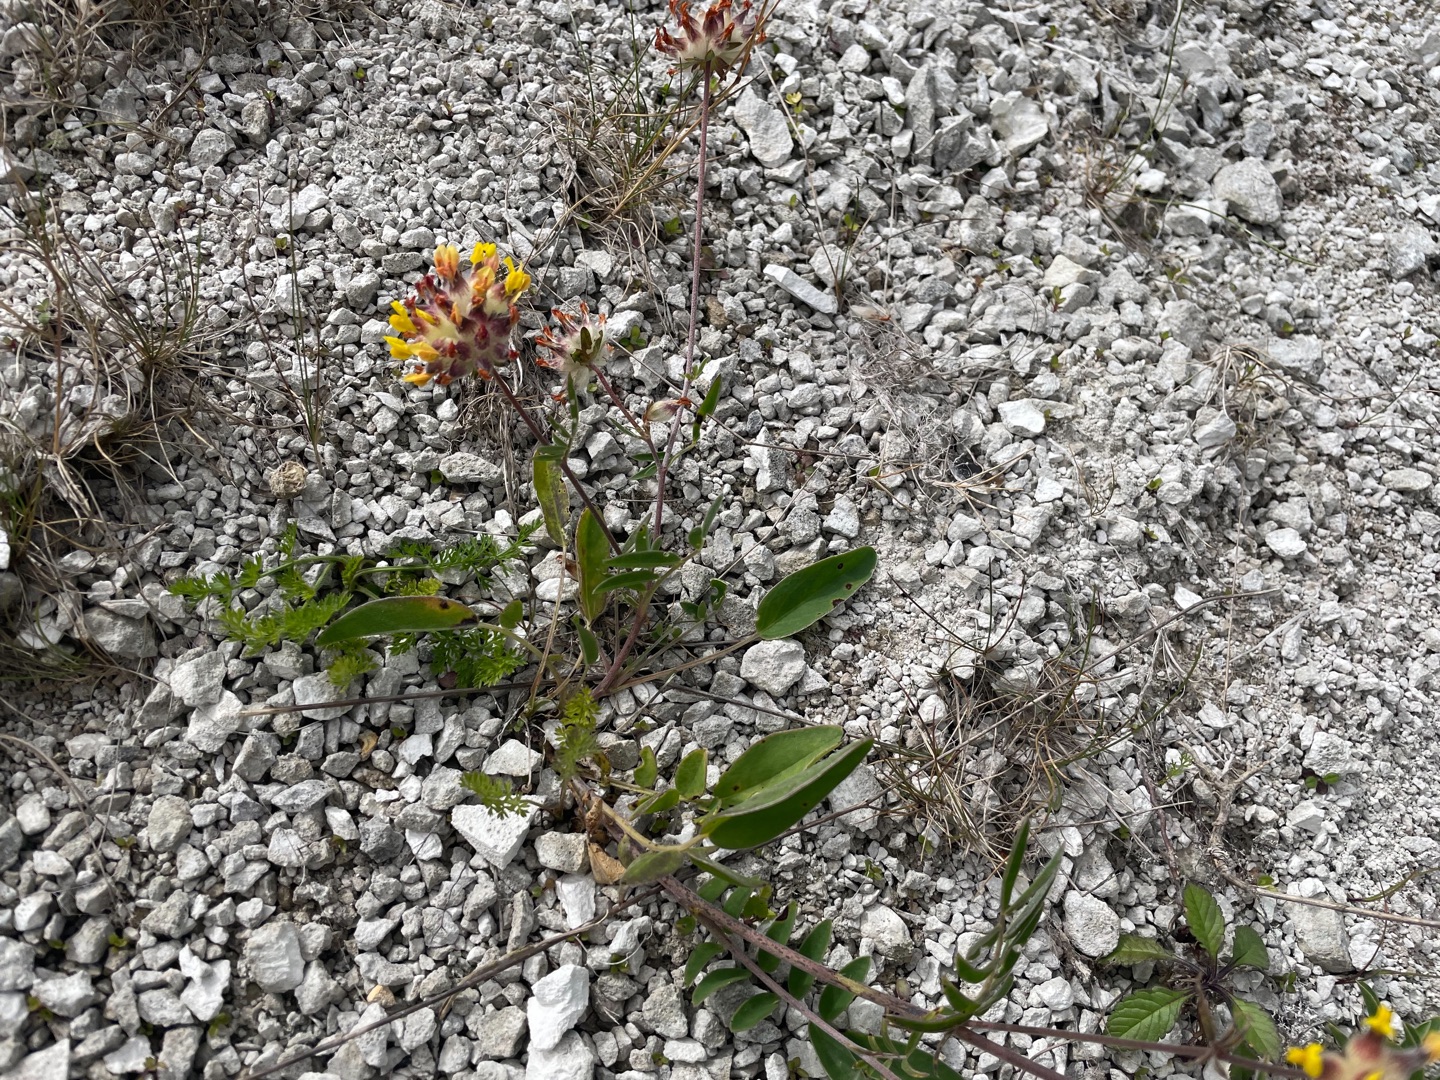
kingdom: Plantae
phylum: Tracheophyta
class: Magnoliopsida
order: Fabales
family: Fabaceae
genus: Anthyllis
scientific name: Anthyllis vulneraria
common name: Rundbælg
